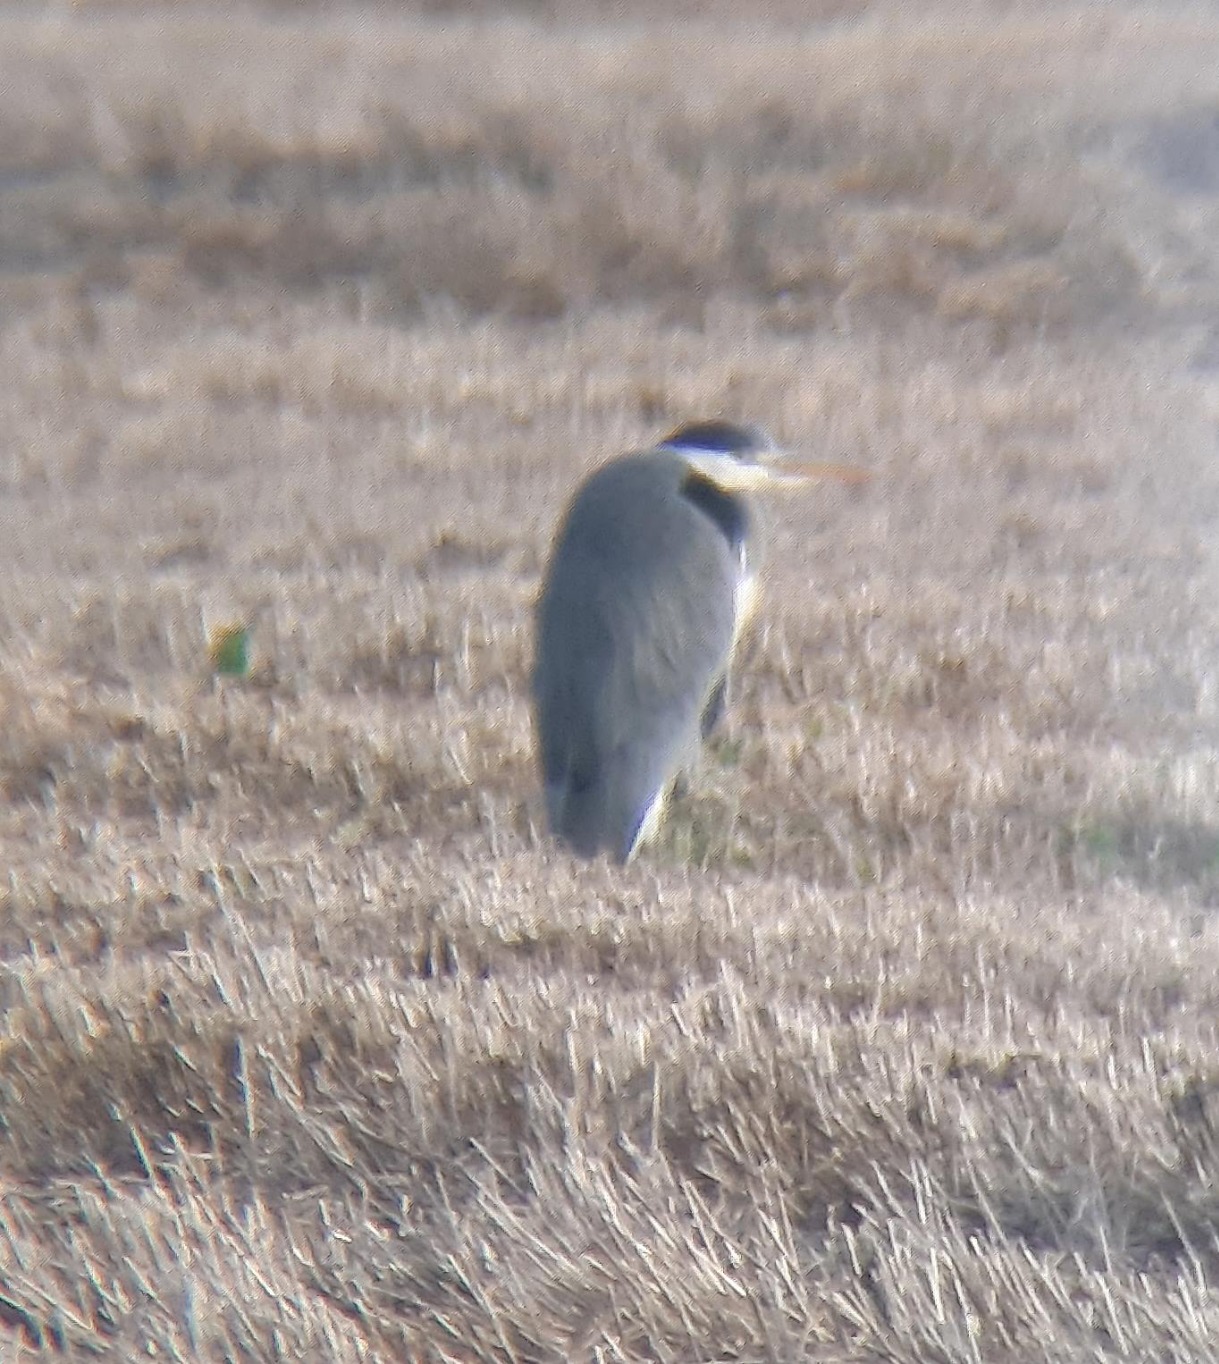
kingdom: Animalia
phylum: Chordata
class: Aves
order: Pelecaniformes
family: Ardeidae
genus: Ardea
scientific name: Ardea cinerea
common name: Fiskehejre
